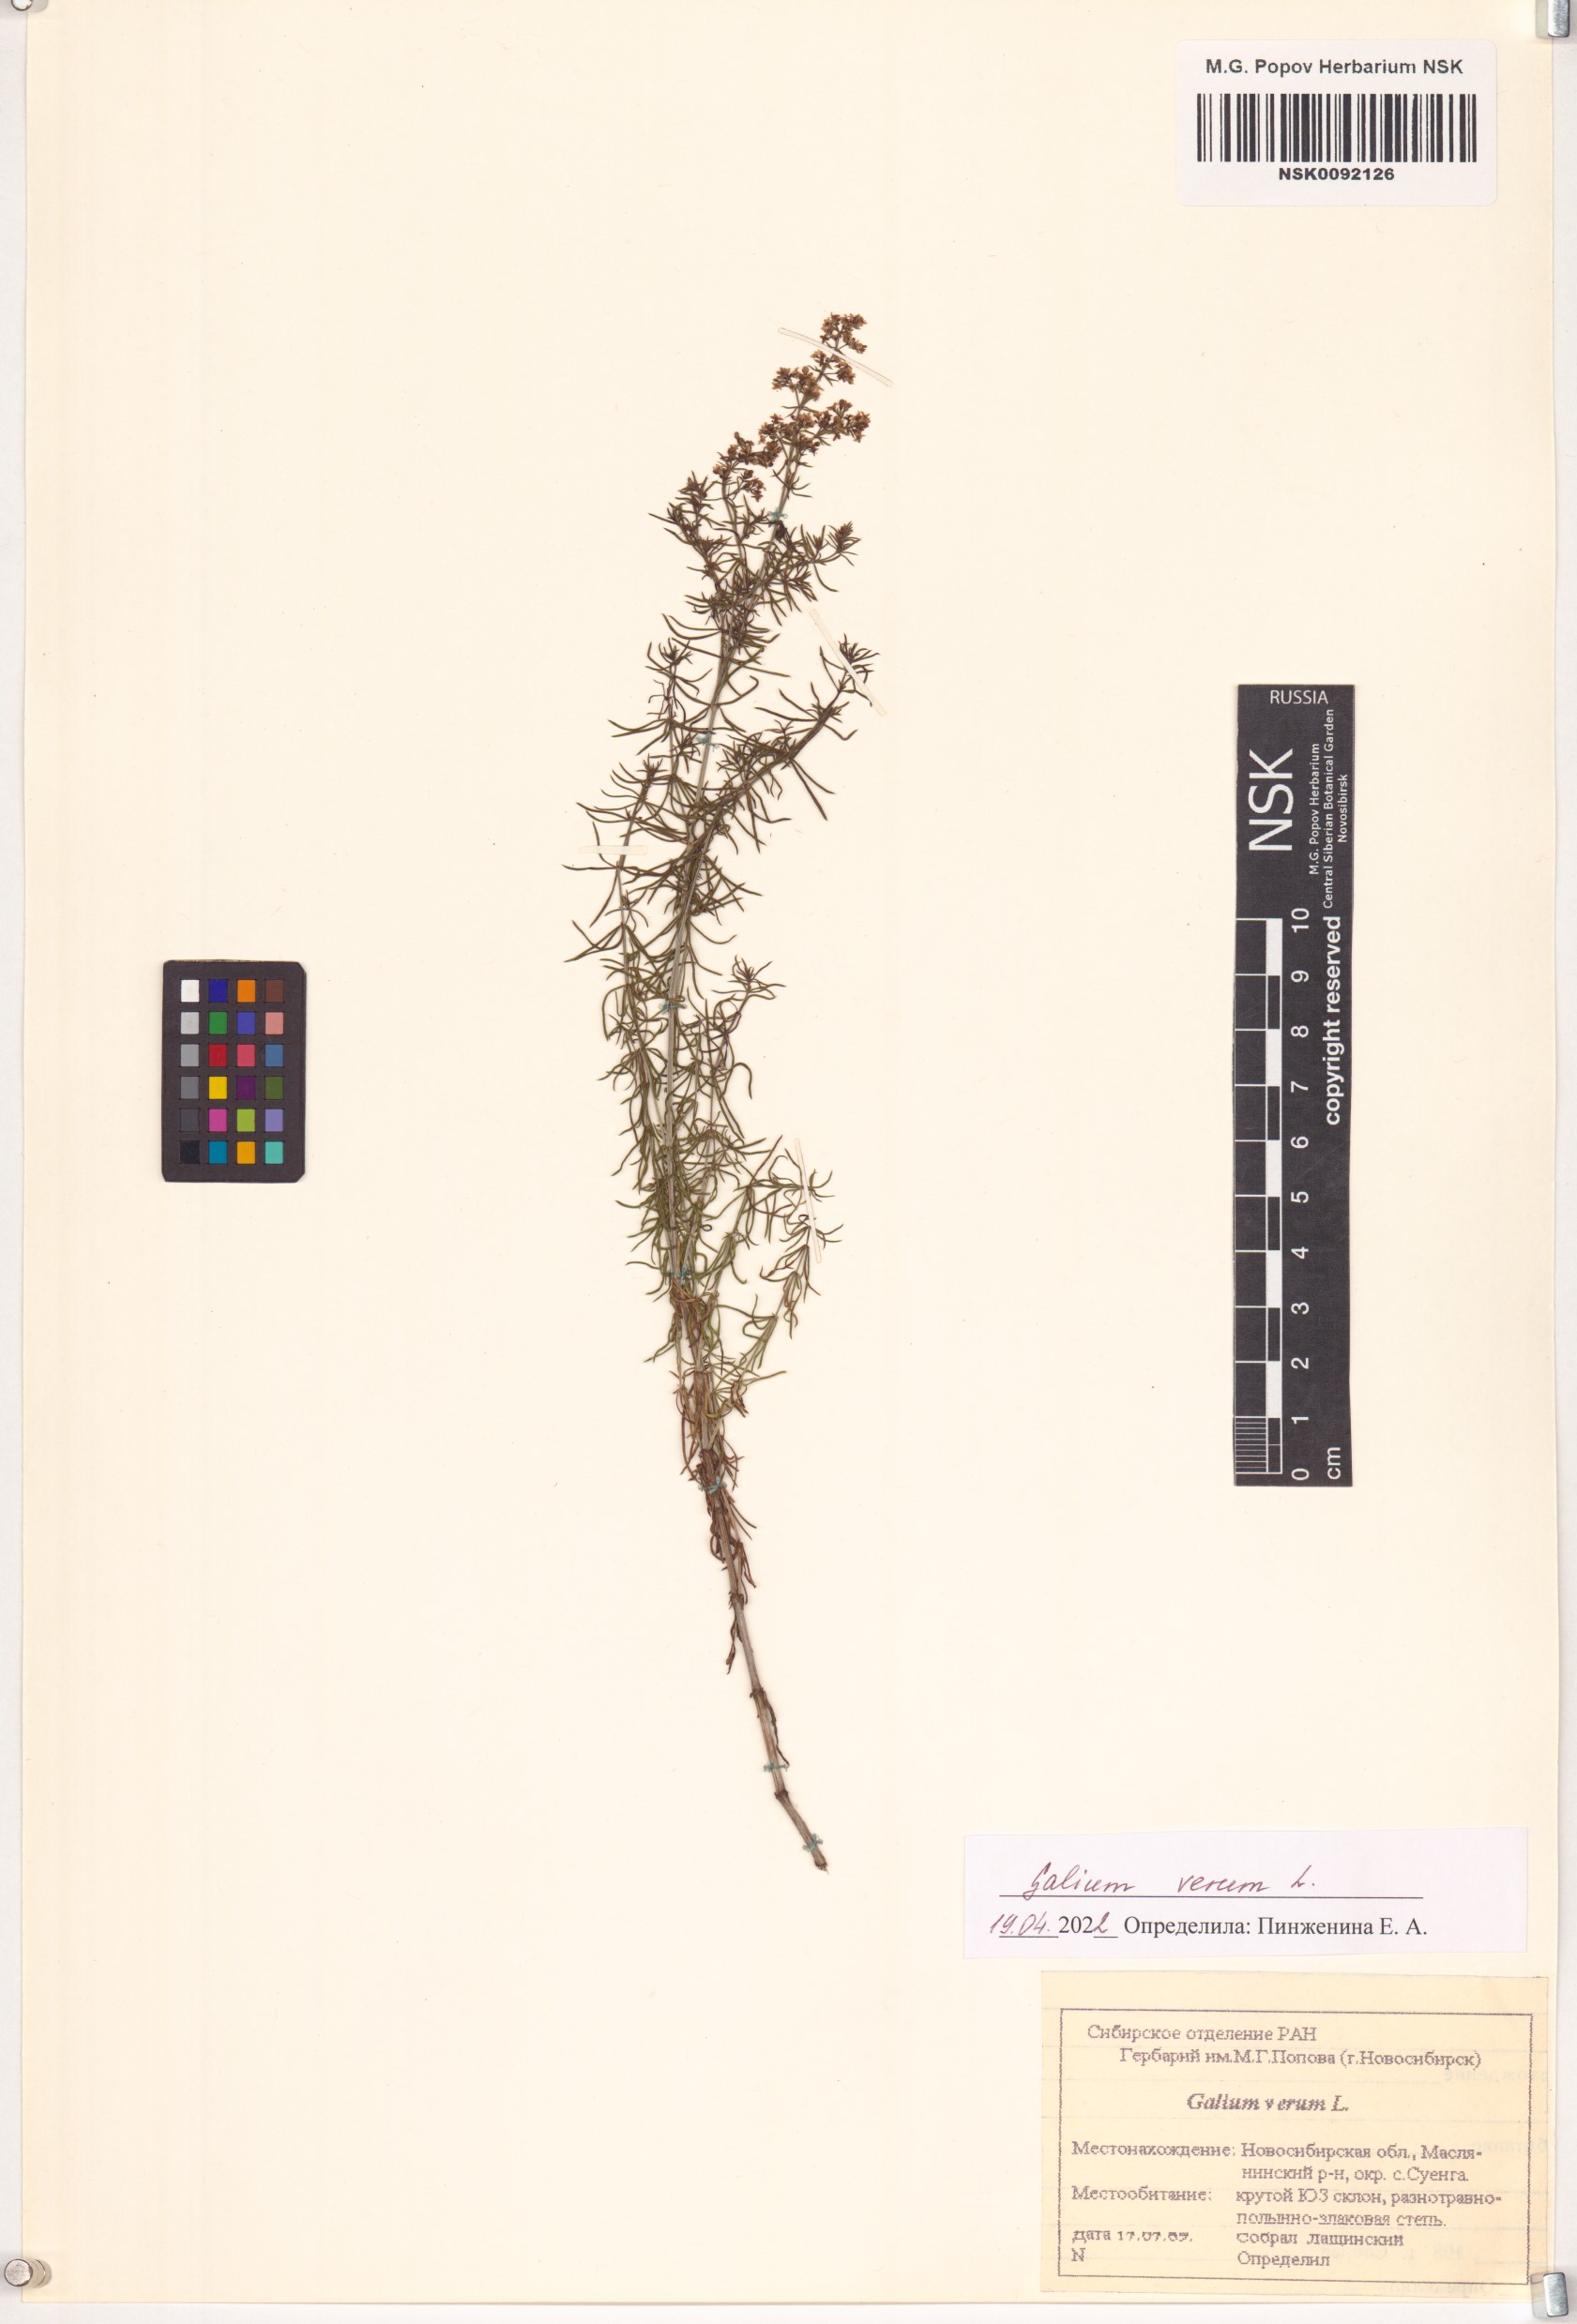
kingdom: Plantae
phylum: Tracheophyta
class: Magnoliopsida
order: Gentianales
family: Rubiaceae
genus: Galium
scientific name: Galium verum
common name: Lady's bedstraw
